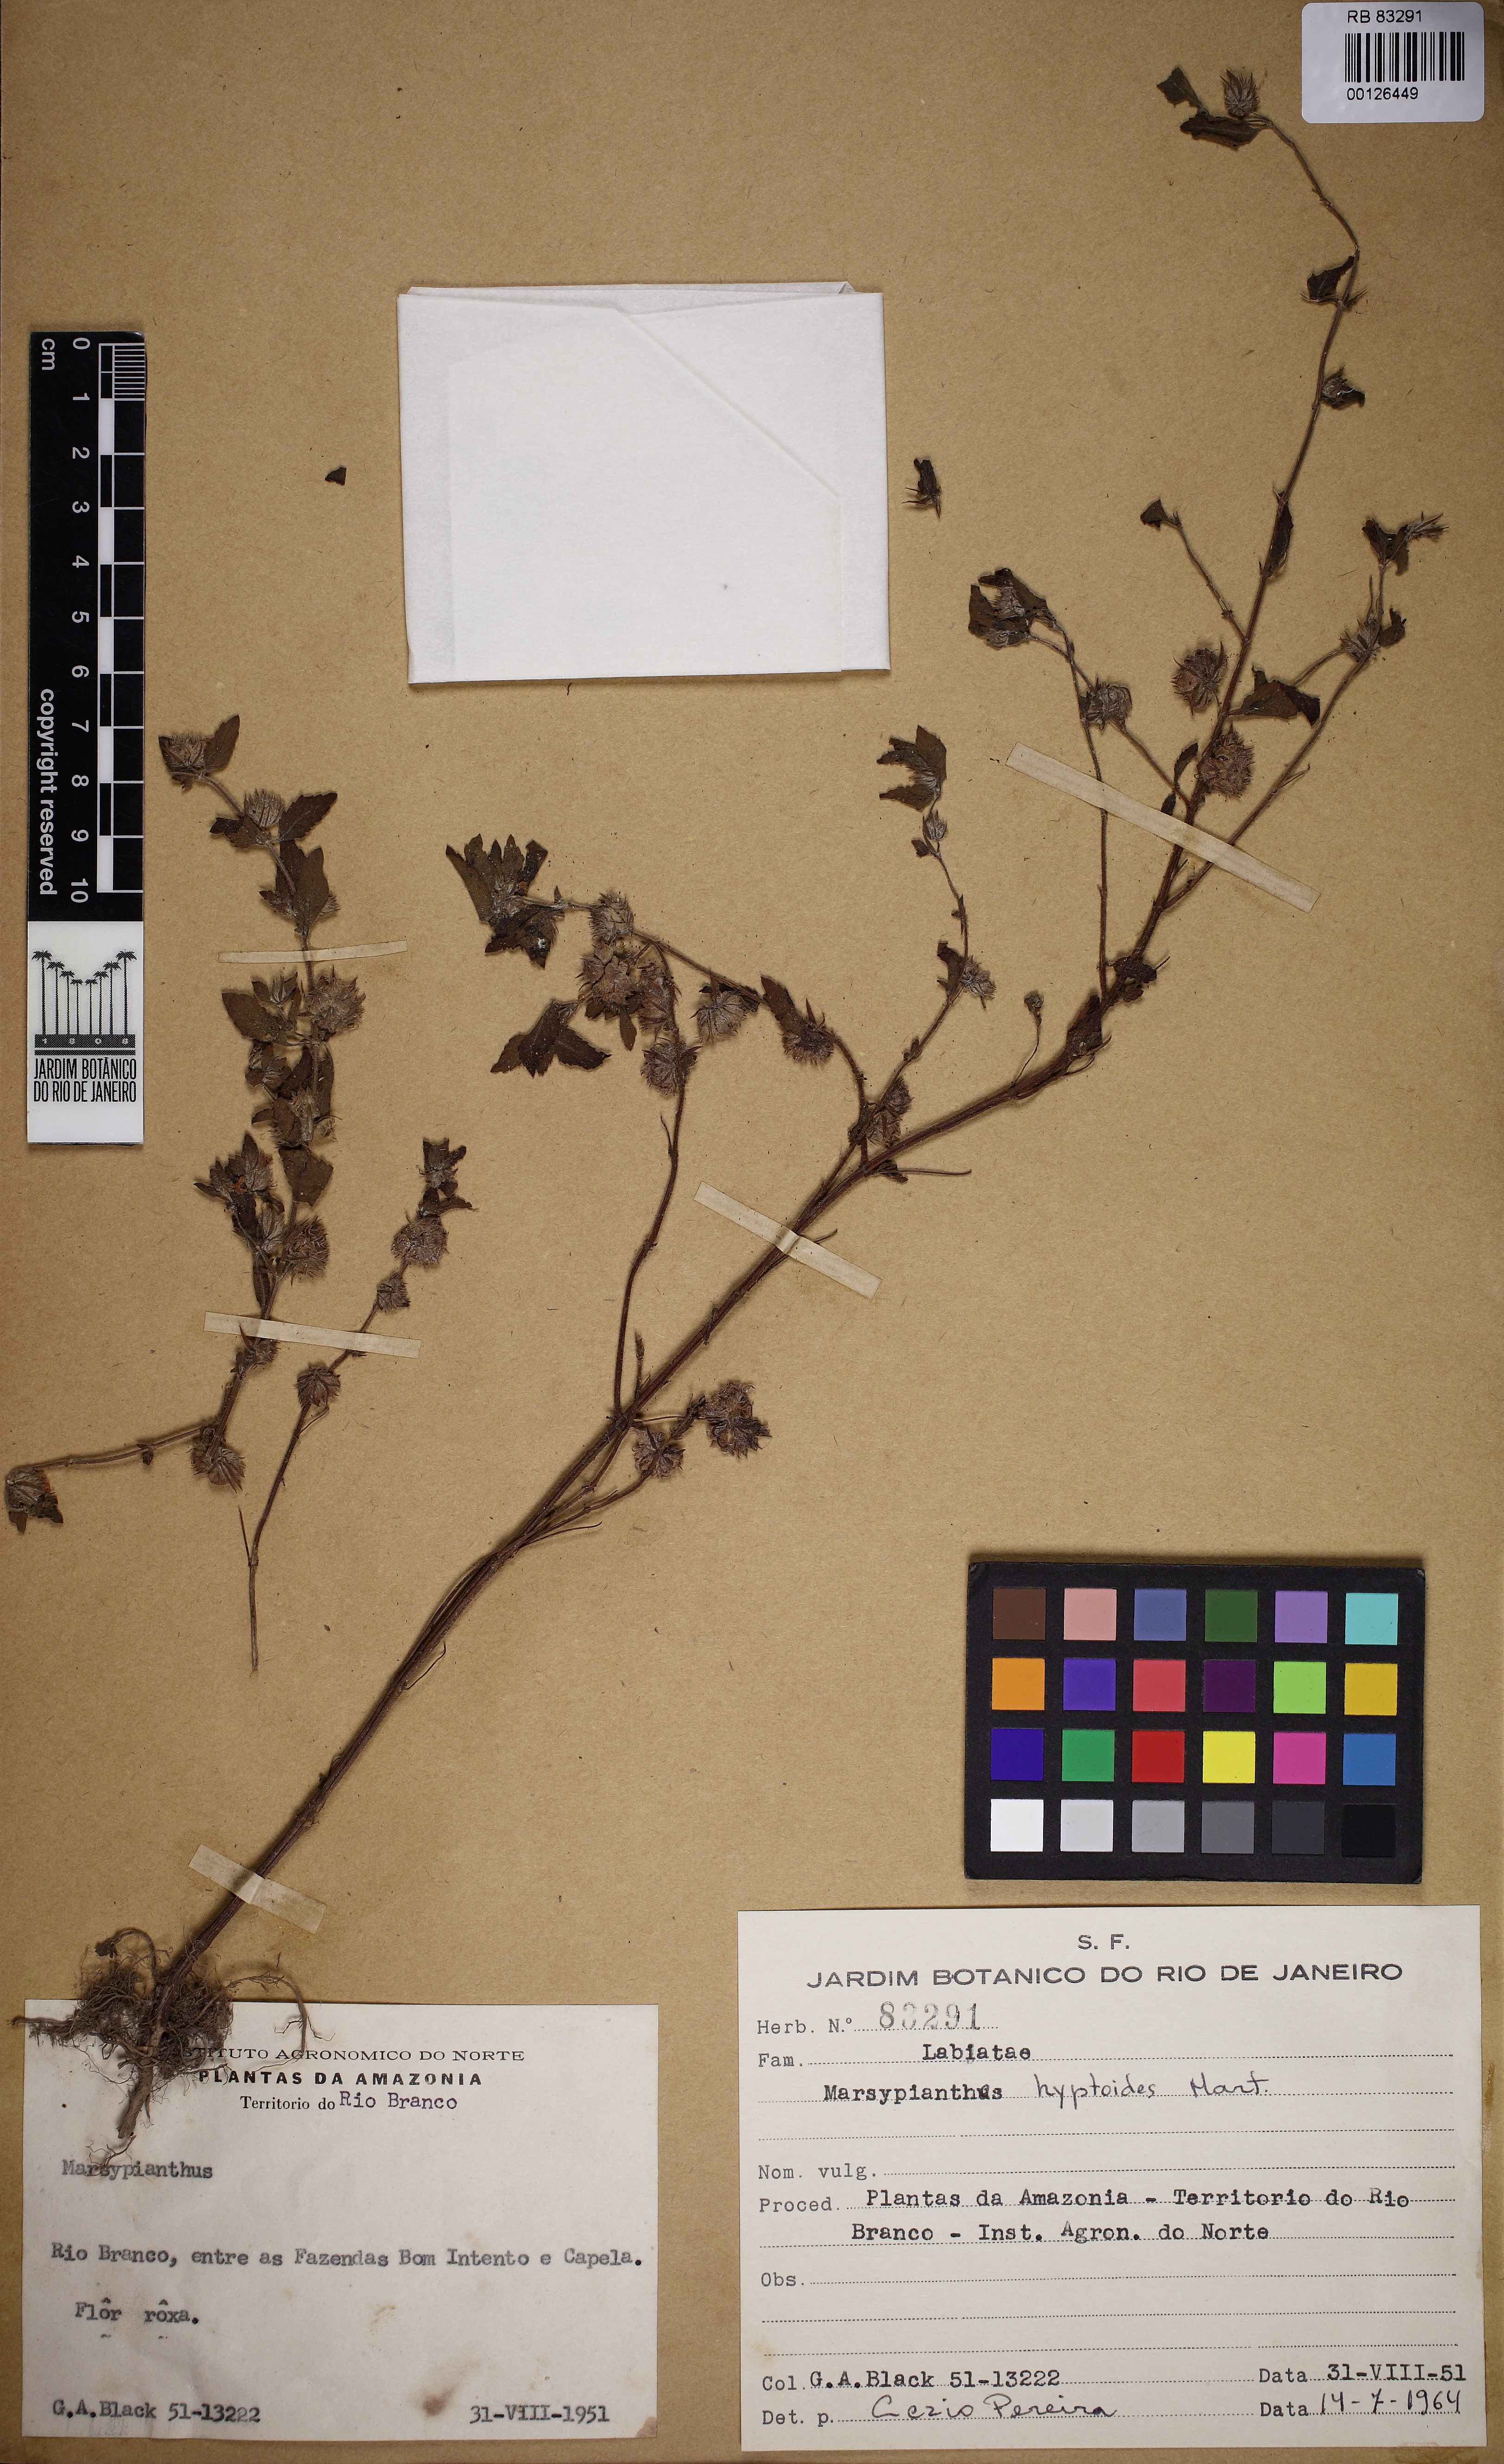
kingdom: Plantae
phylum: Tracheophyta
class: Magnoliopsida
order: Lamiales
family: Lamiaceae
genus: Marsypianthes
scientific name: Marsypianthes chamaedrys
